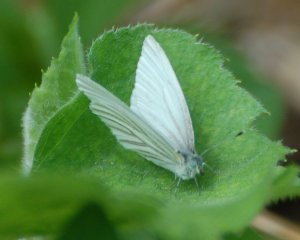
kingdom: Animalia
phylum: Arthropoda
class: Insecta
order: Lepidoptera
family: Pieridae
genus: Pieris
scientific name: Pieris oleracea
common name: Mustard White
